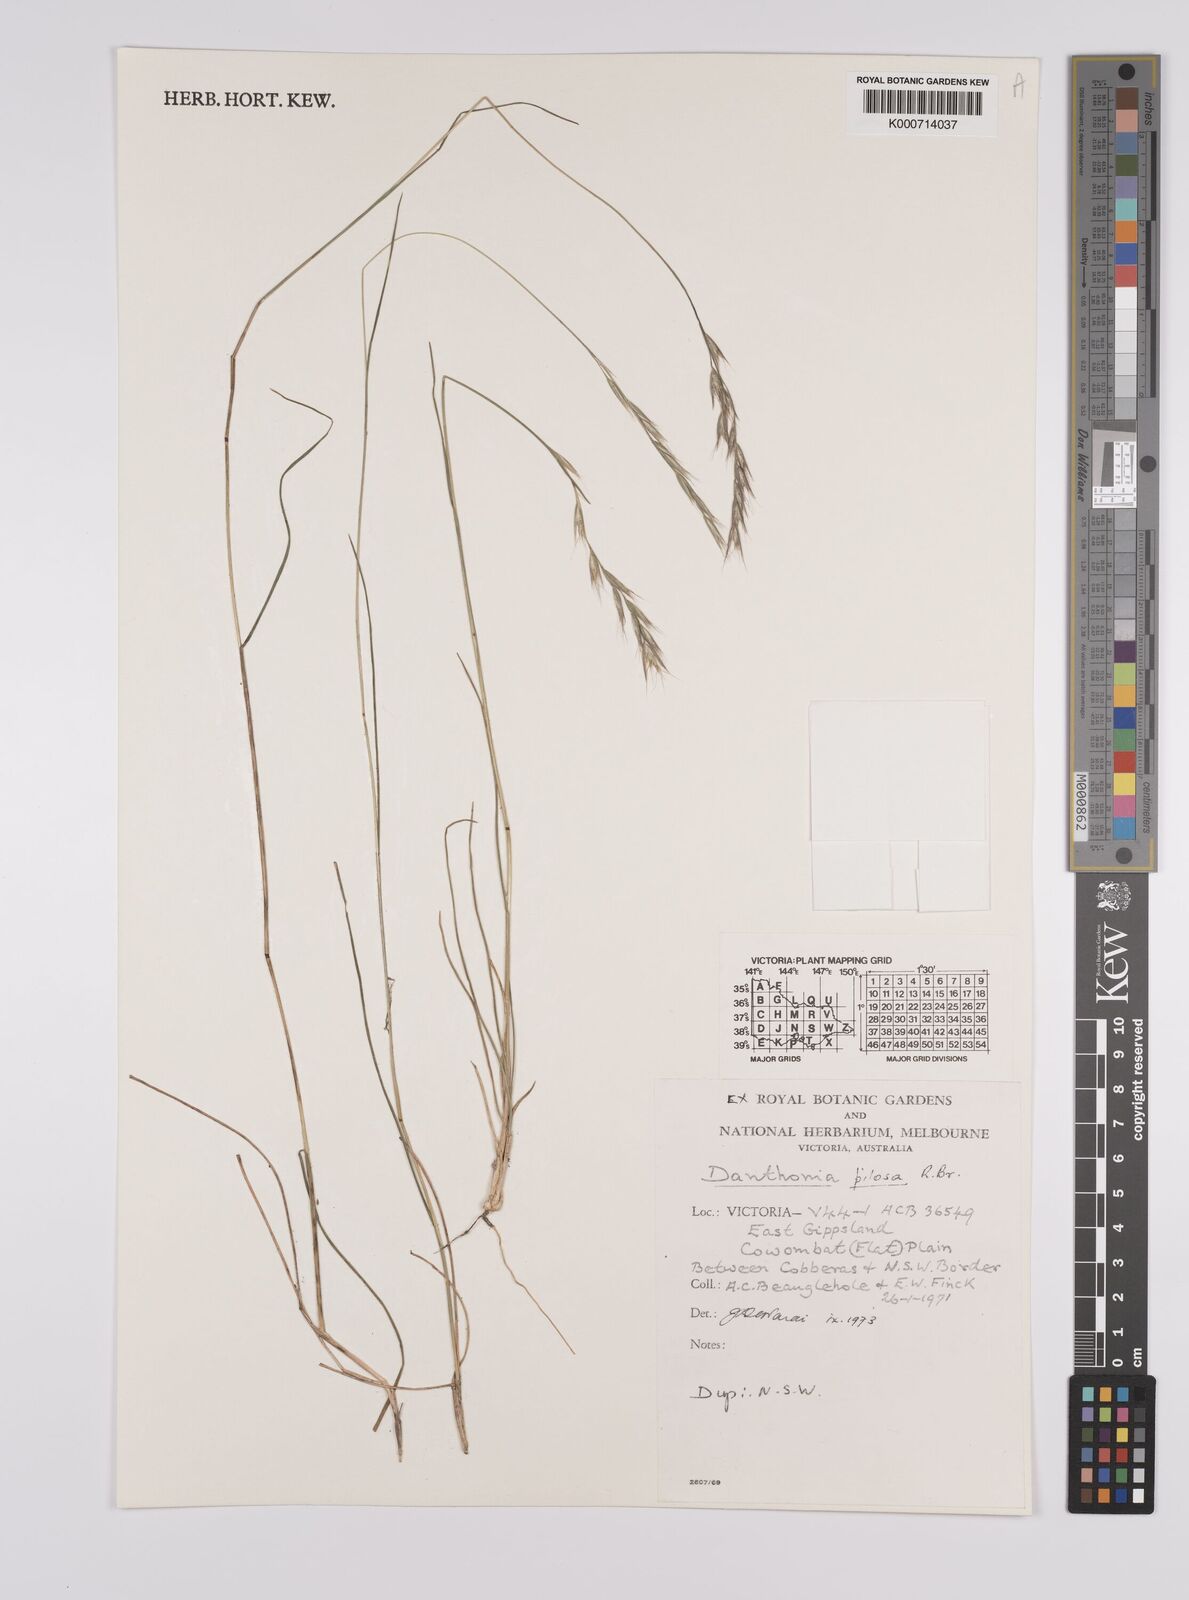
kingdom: Plantae
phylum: Tracheophyta
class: Liliopsida
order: Poales
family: Poaceae
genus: Rytidosperma
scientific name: Rytidosperma penicillatum
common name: Hairy wallaby grass
